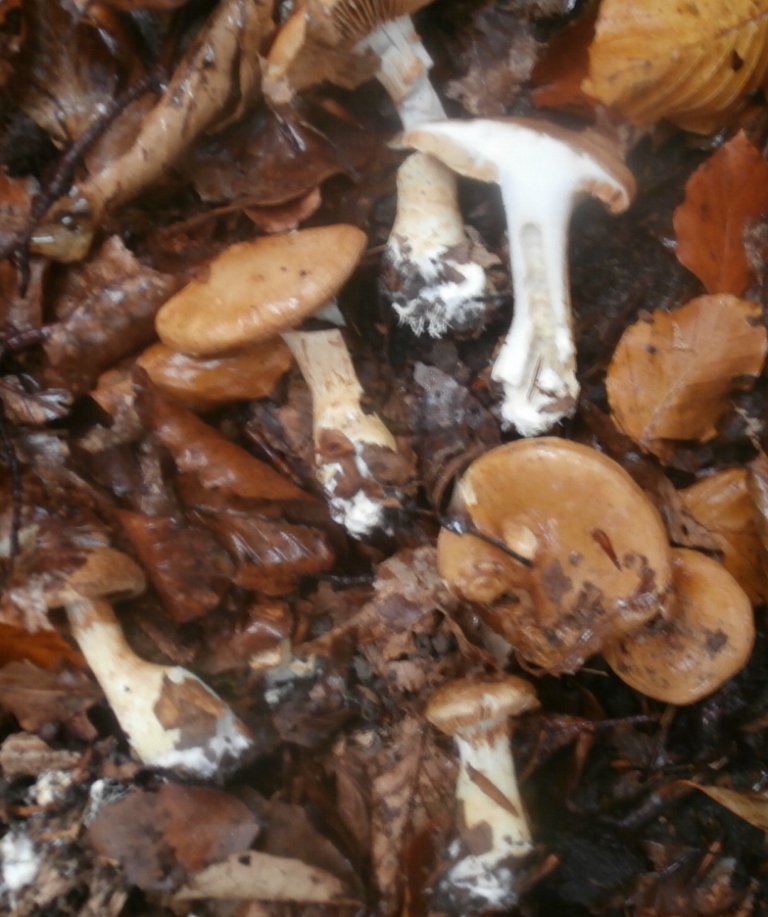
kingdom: Fungi
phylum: Basidiomycota
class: Agaricomycetes
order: Agaricales
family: Cortinariaceae
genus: Phlegmacium
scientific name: Phlegmacium cliduchus
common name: majs-slørhat
